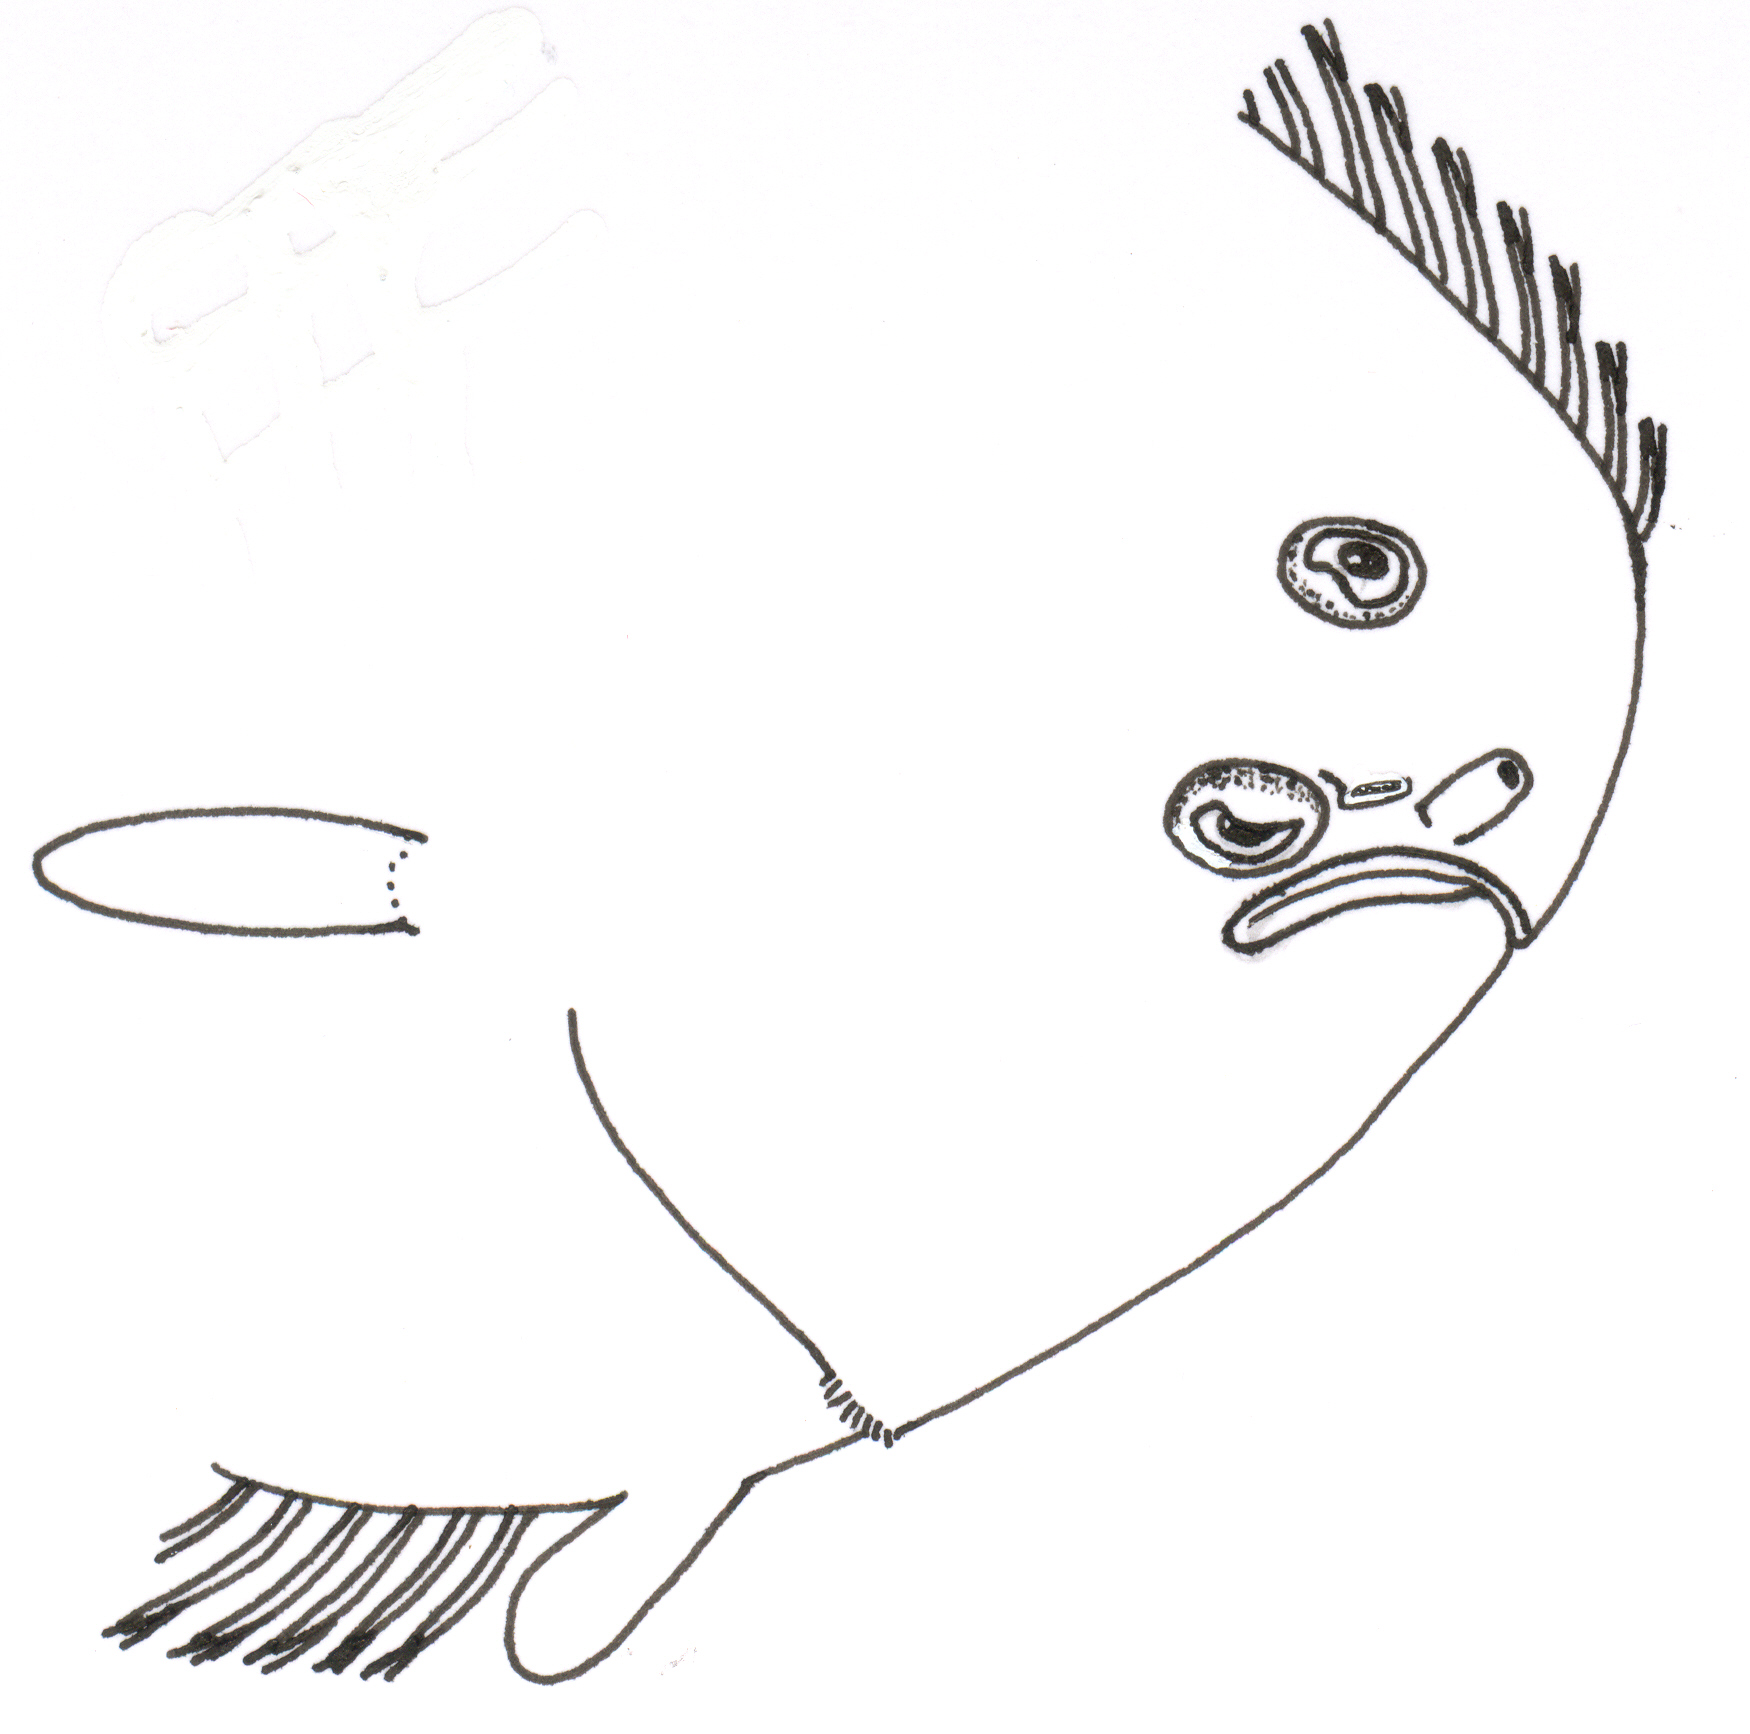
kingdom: Animalia
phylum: Chordata
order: Pleuronectiformes
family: Soleidae
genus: Pegusa
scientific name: Pegusa nasuta
